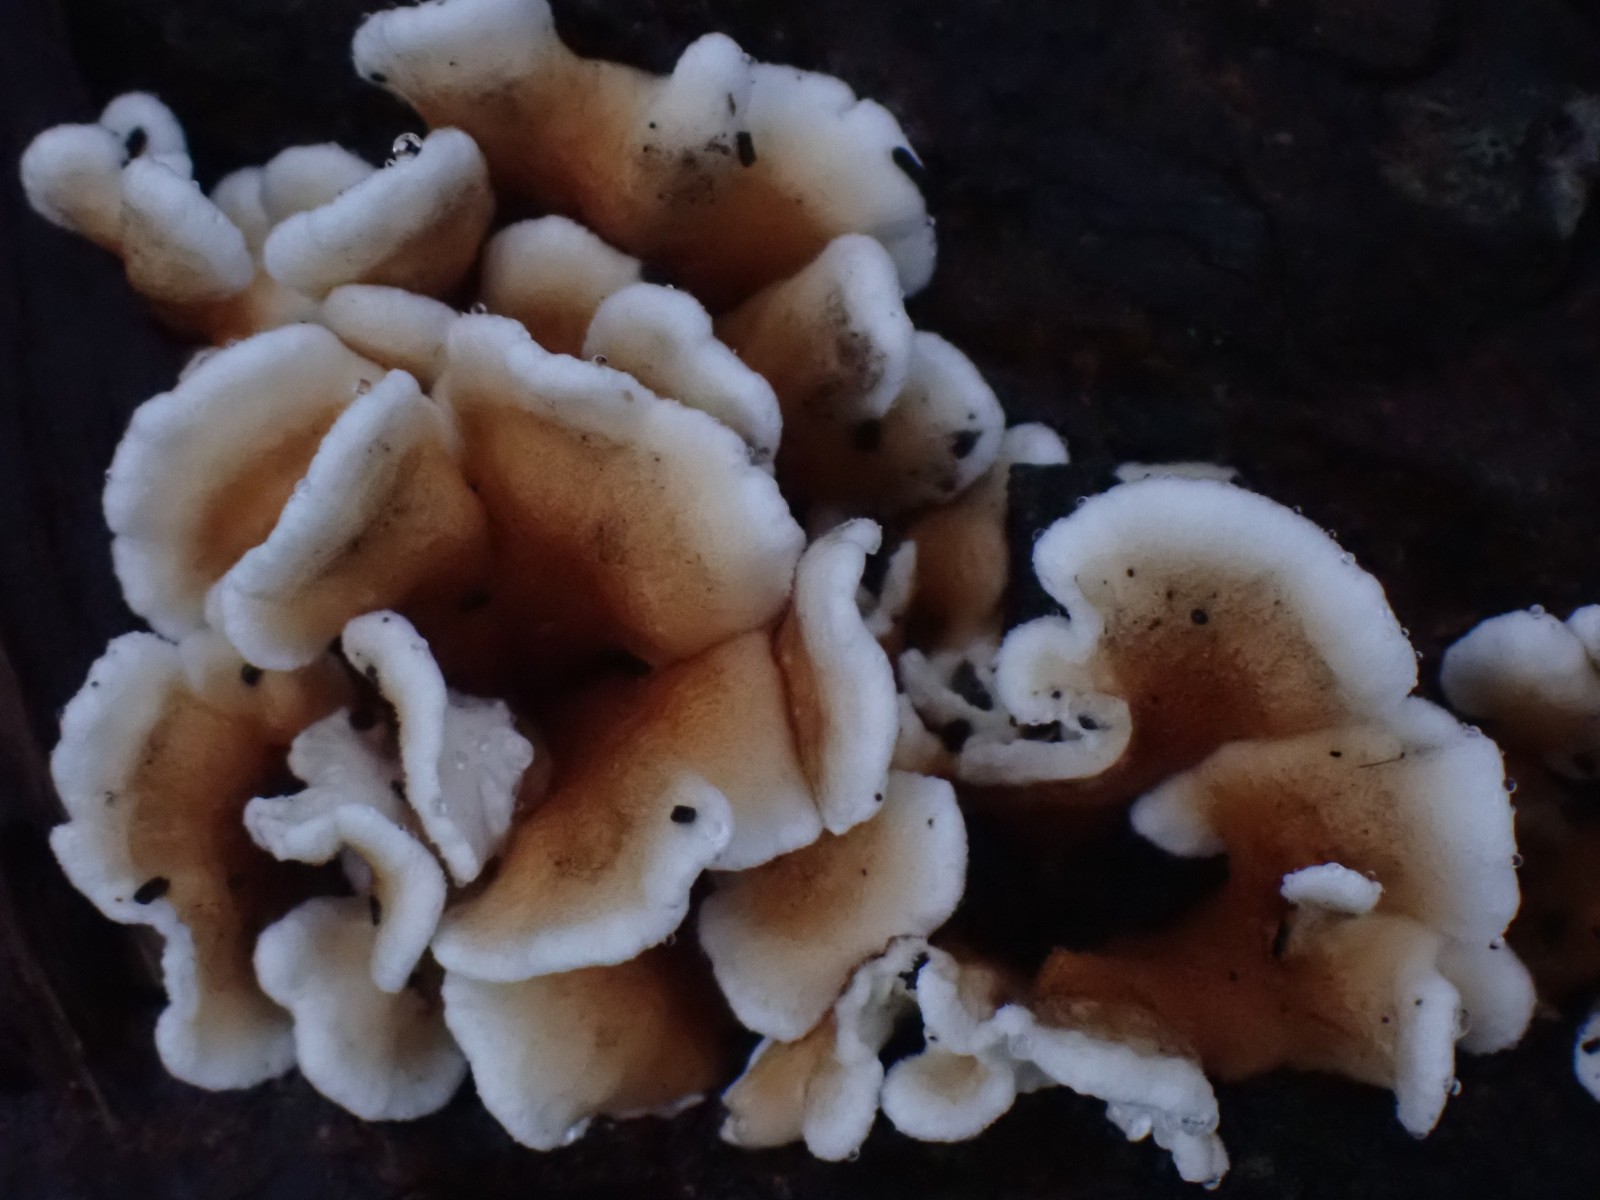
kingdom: Fungi
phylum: Basidiomycota
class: Agaricomycetes
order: Amylocorticiales
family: Amylocorticiaceae
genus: Plicaturopsis
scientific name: Plicaturopsis crispa
